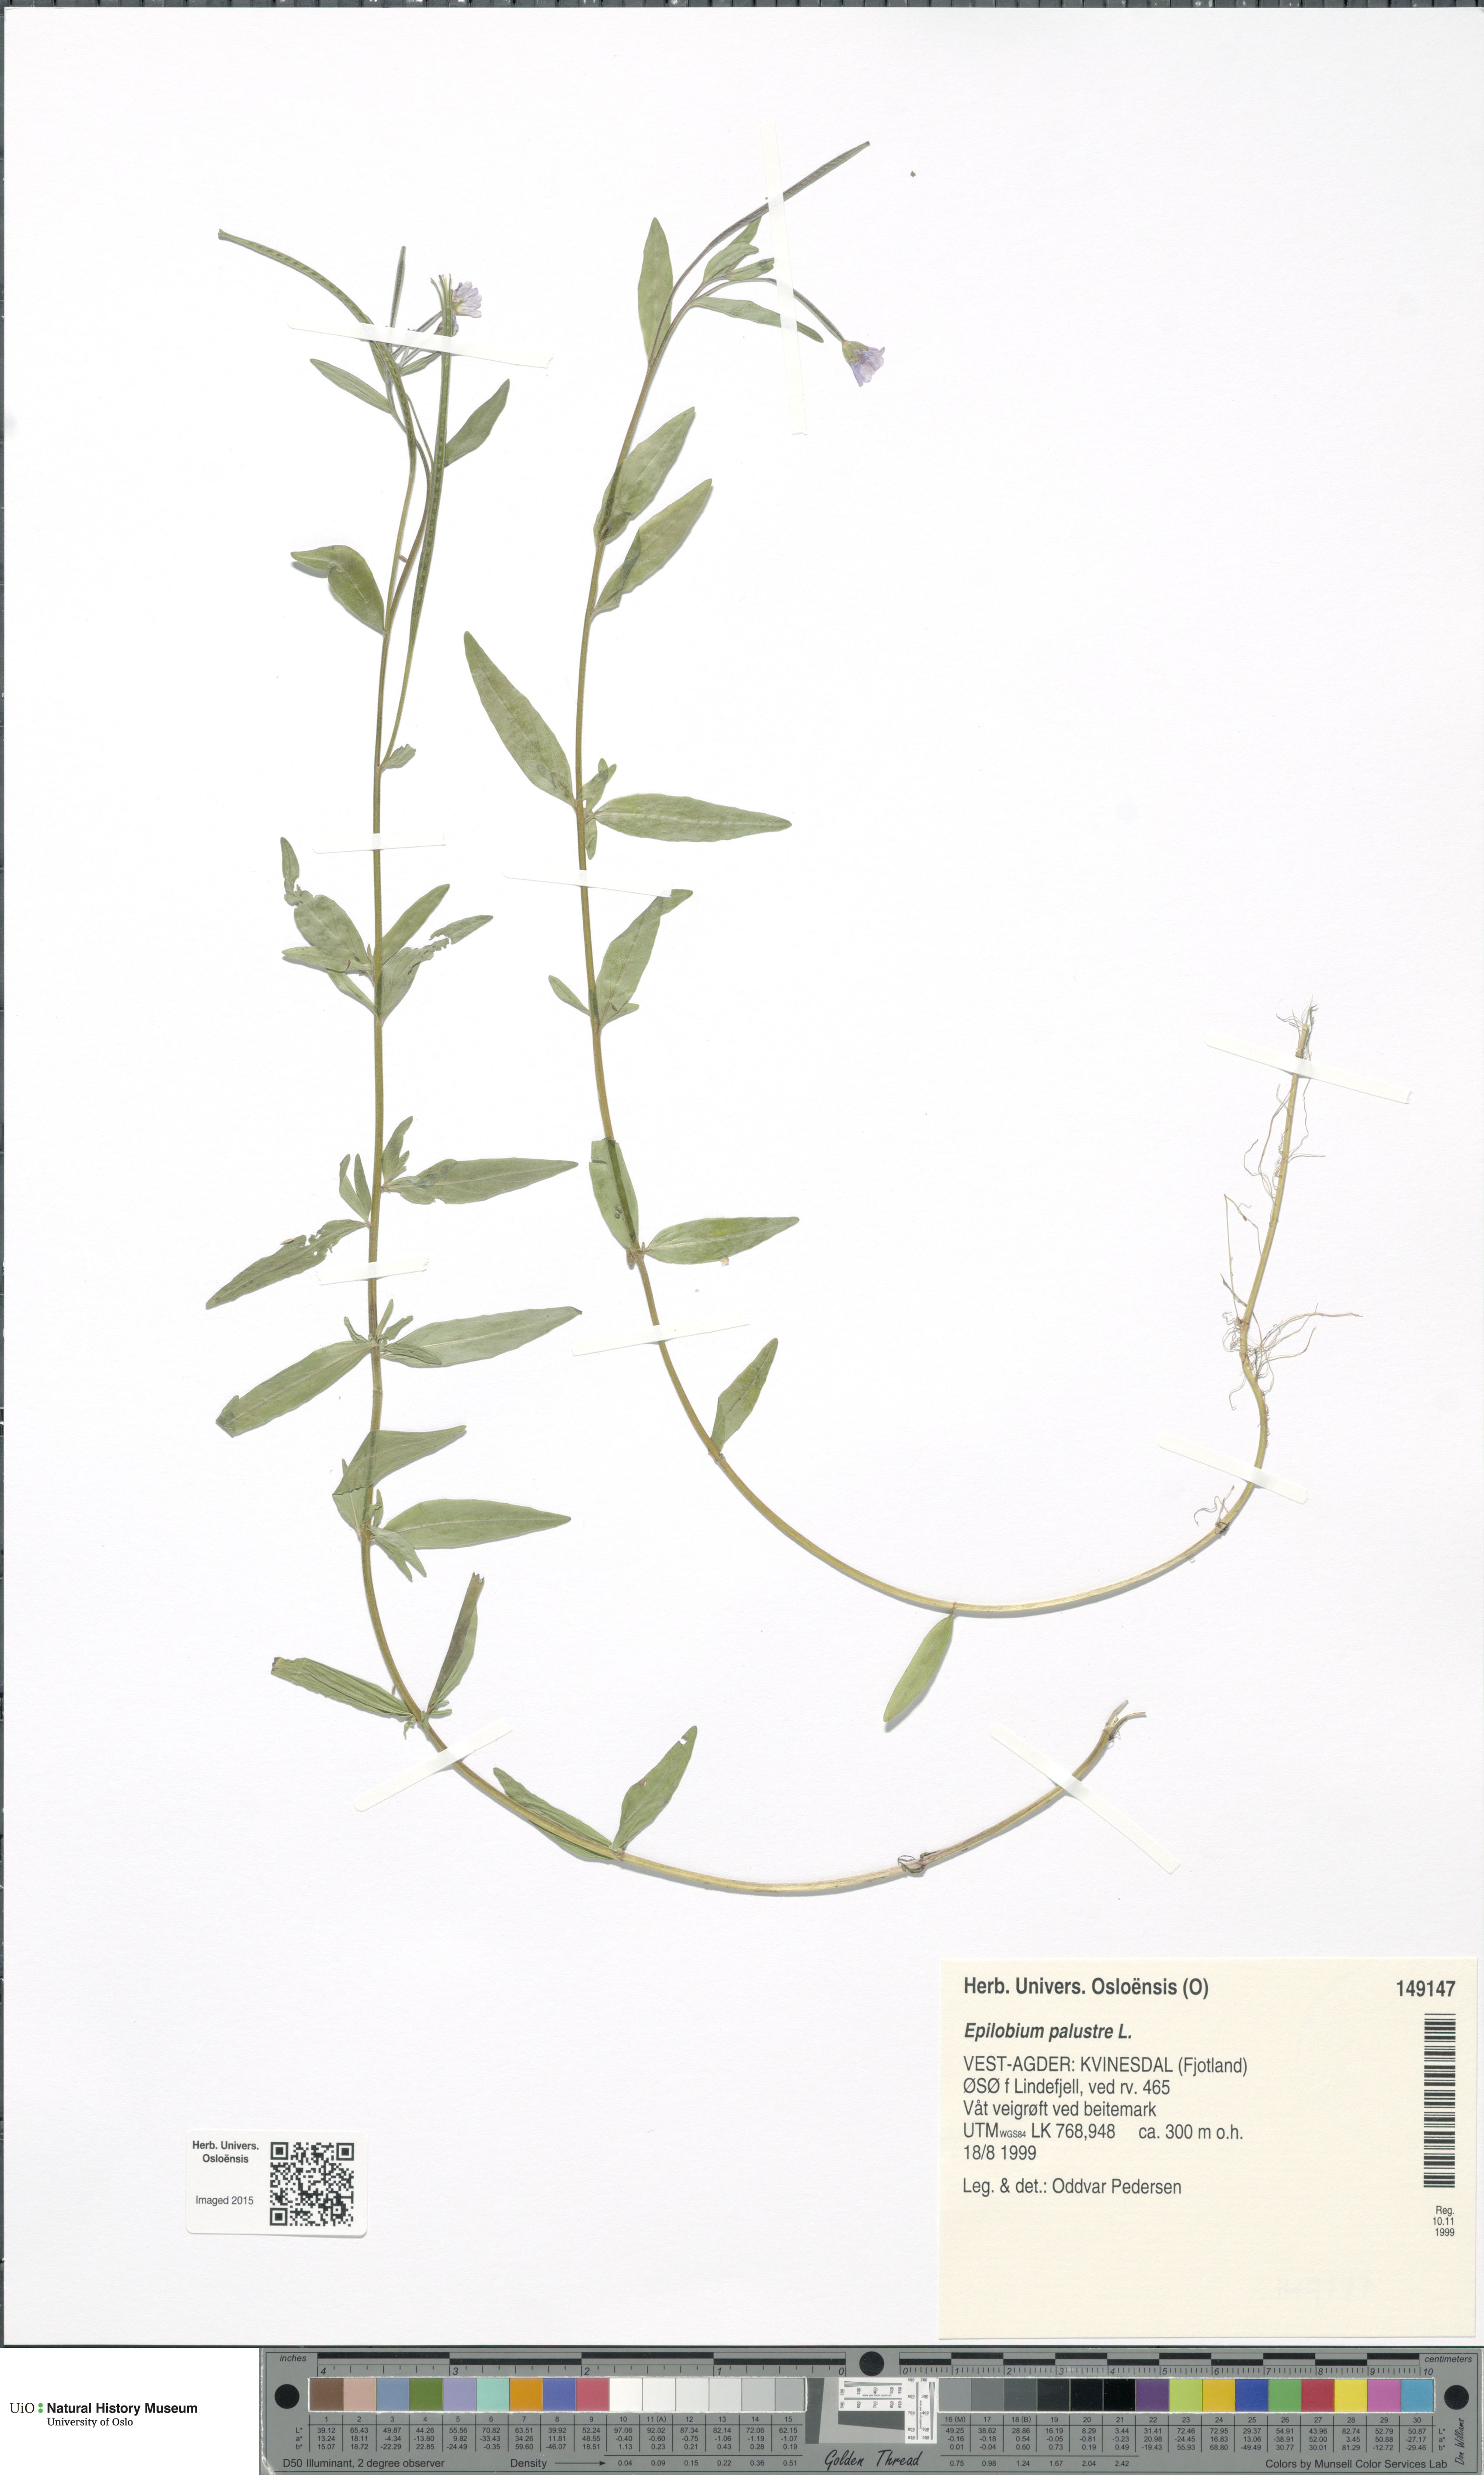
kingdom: Plantae
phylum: Tracheophyta
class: Magnoliopsida
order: Myrtales
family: Onagraceae
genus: Epilobium
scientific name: Epilobium palustre
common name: Marsh willowherb
